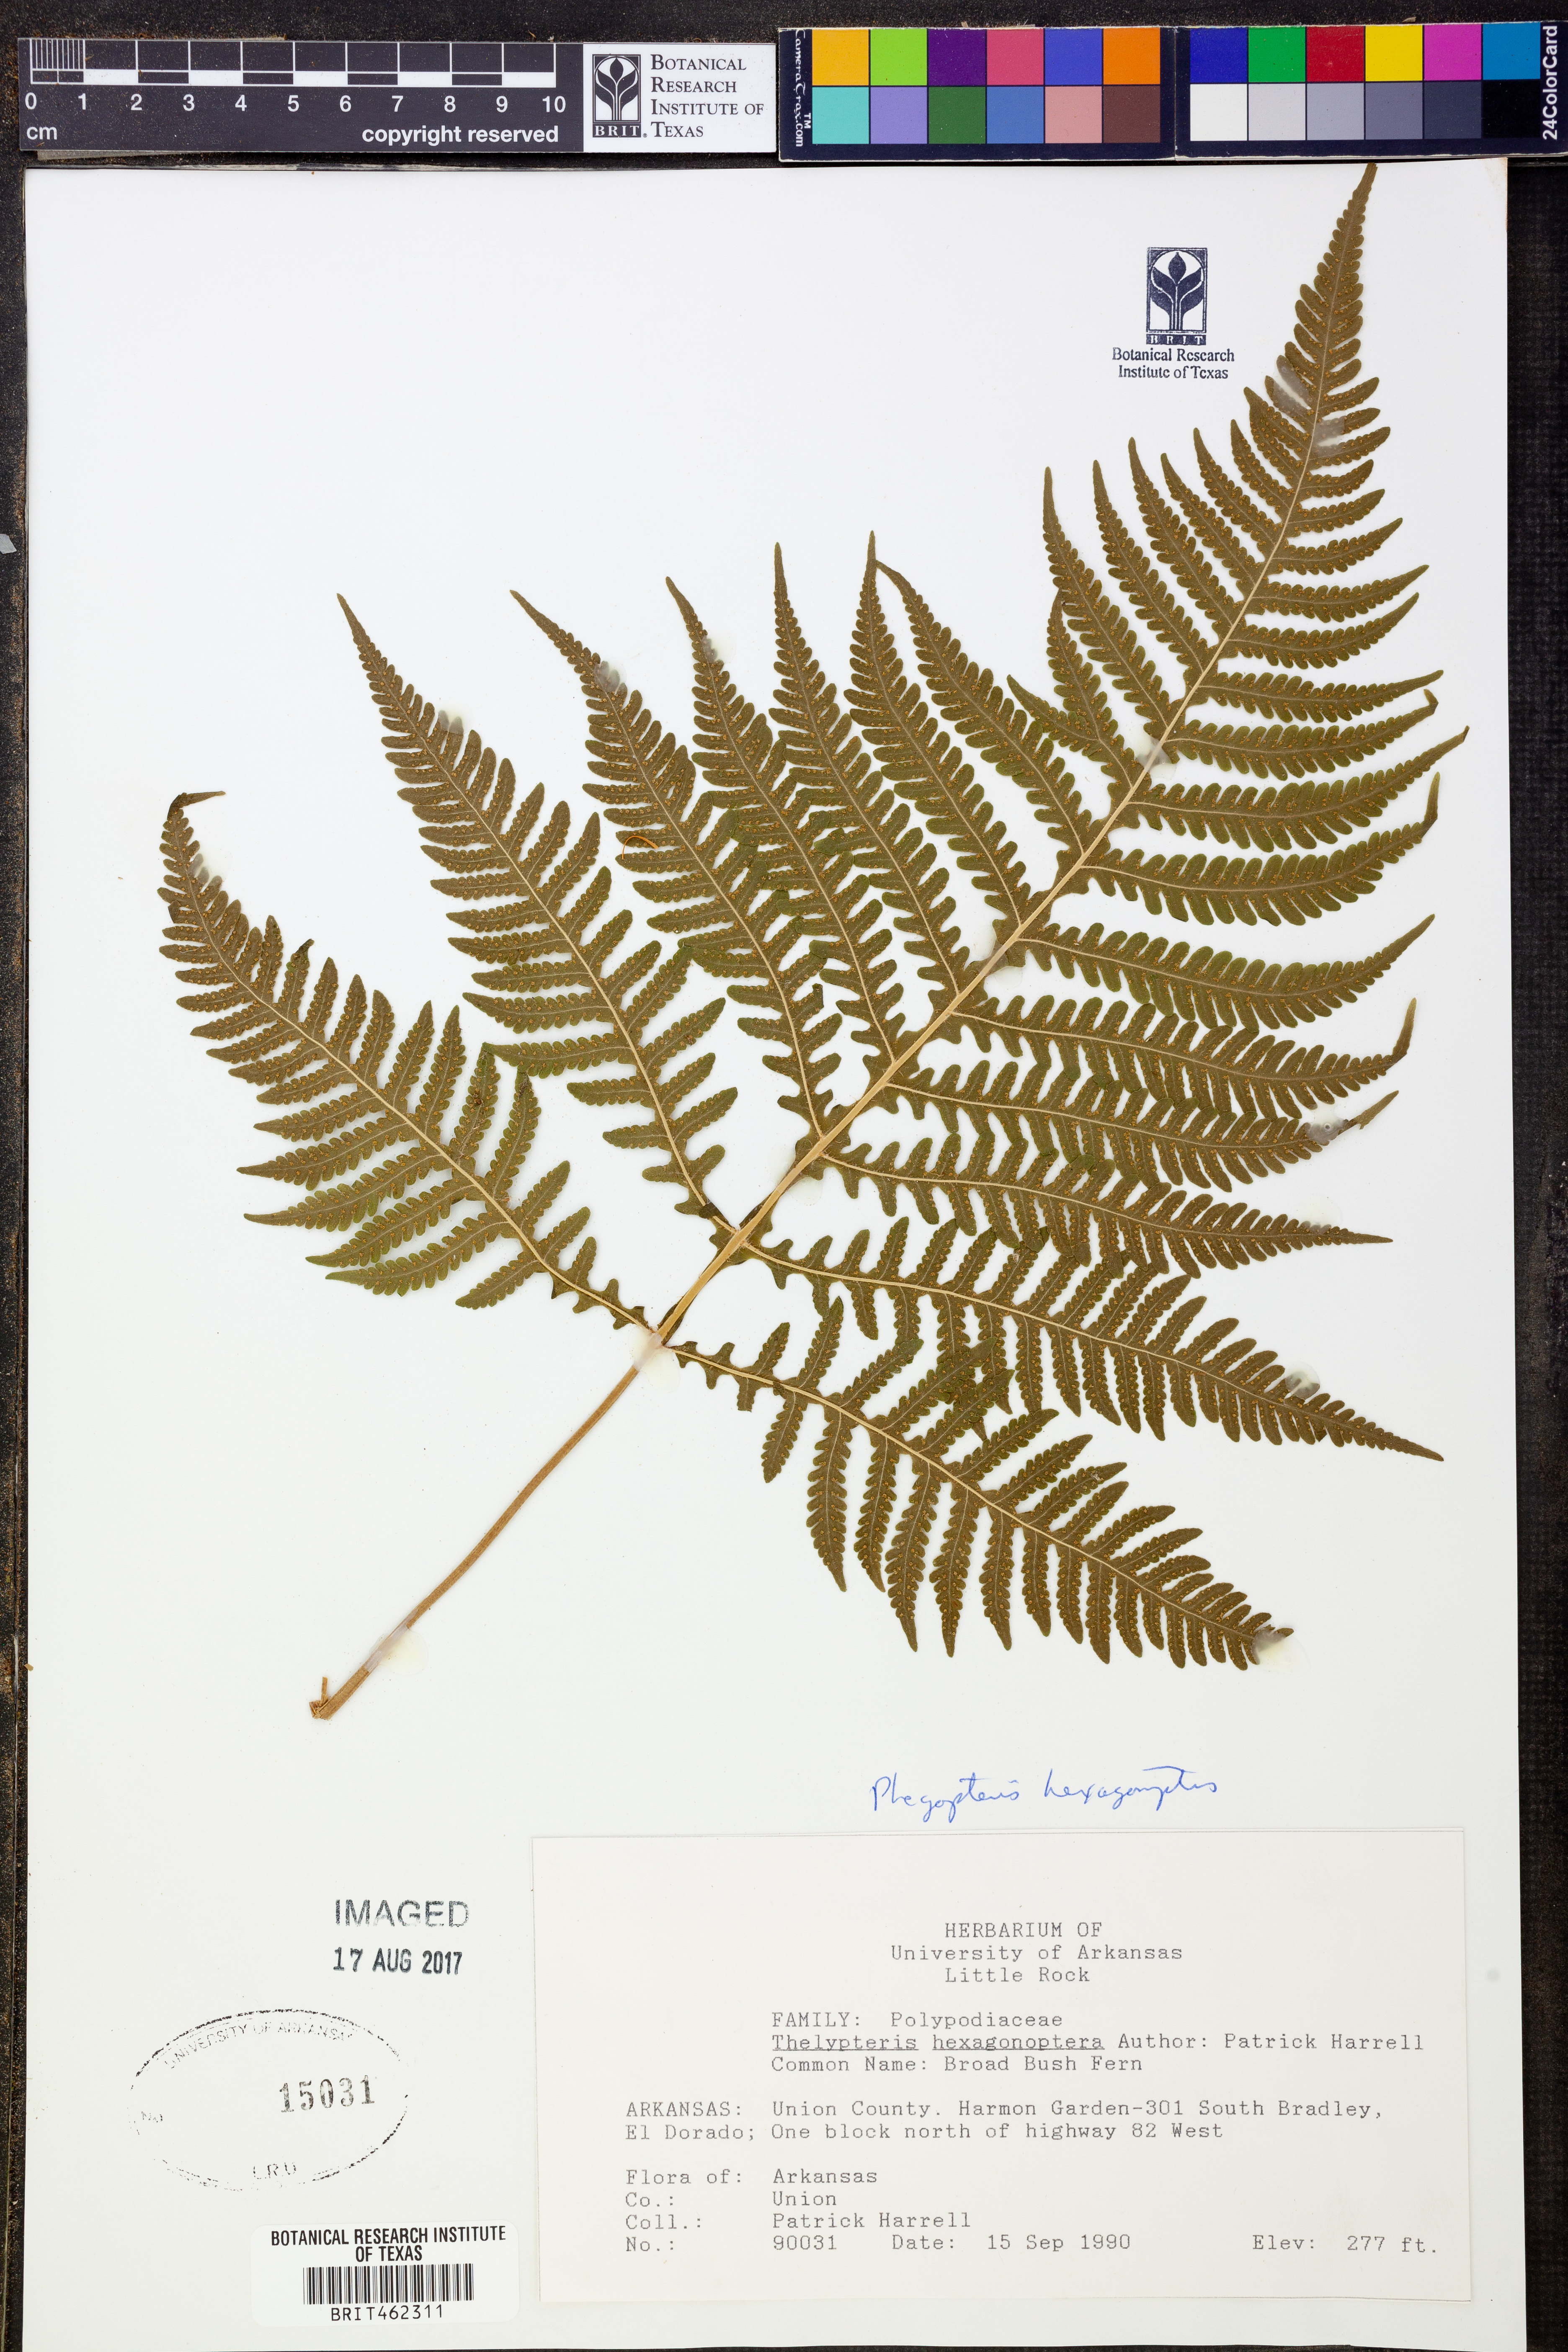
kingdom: Plantae
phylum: Tracheophyta
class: Polypodiopsida
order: Polypodiales
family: Thelypteridaceae
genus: Phegopteris
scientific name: Phegopteris hexagonoptera
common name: Broad beech fern
